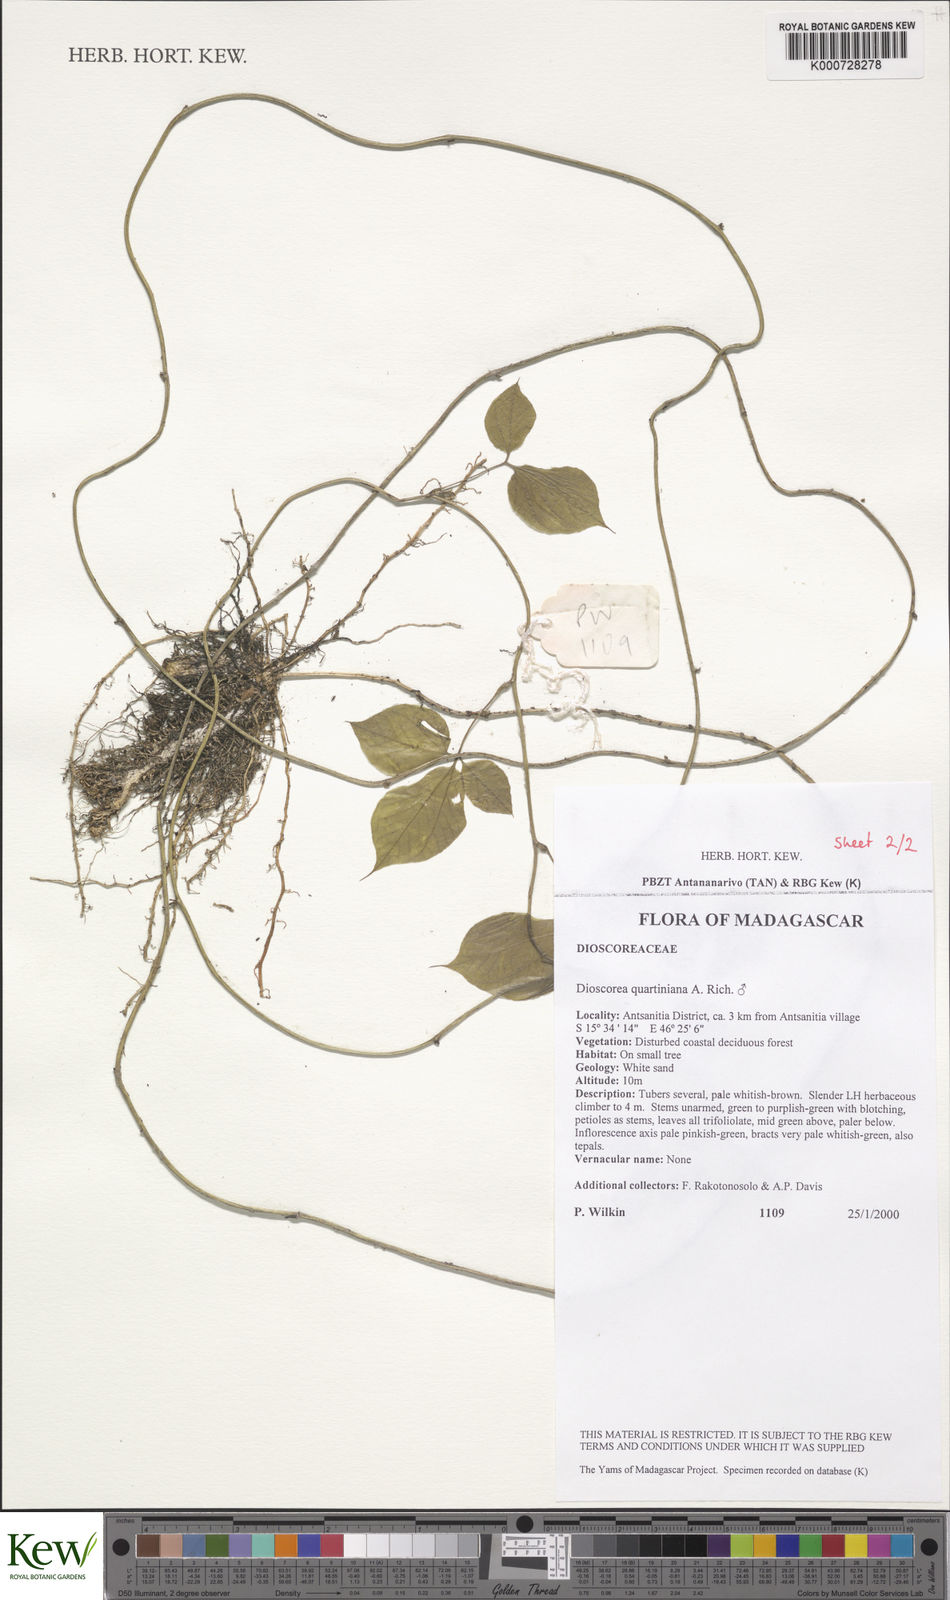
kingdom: Plantae
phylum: Tracheophyta
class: Liliopsida
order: Dioscoreales
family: Dioscoreaceae
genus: Dioscorea
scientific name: Dioscorea quartiniana
